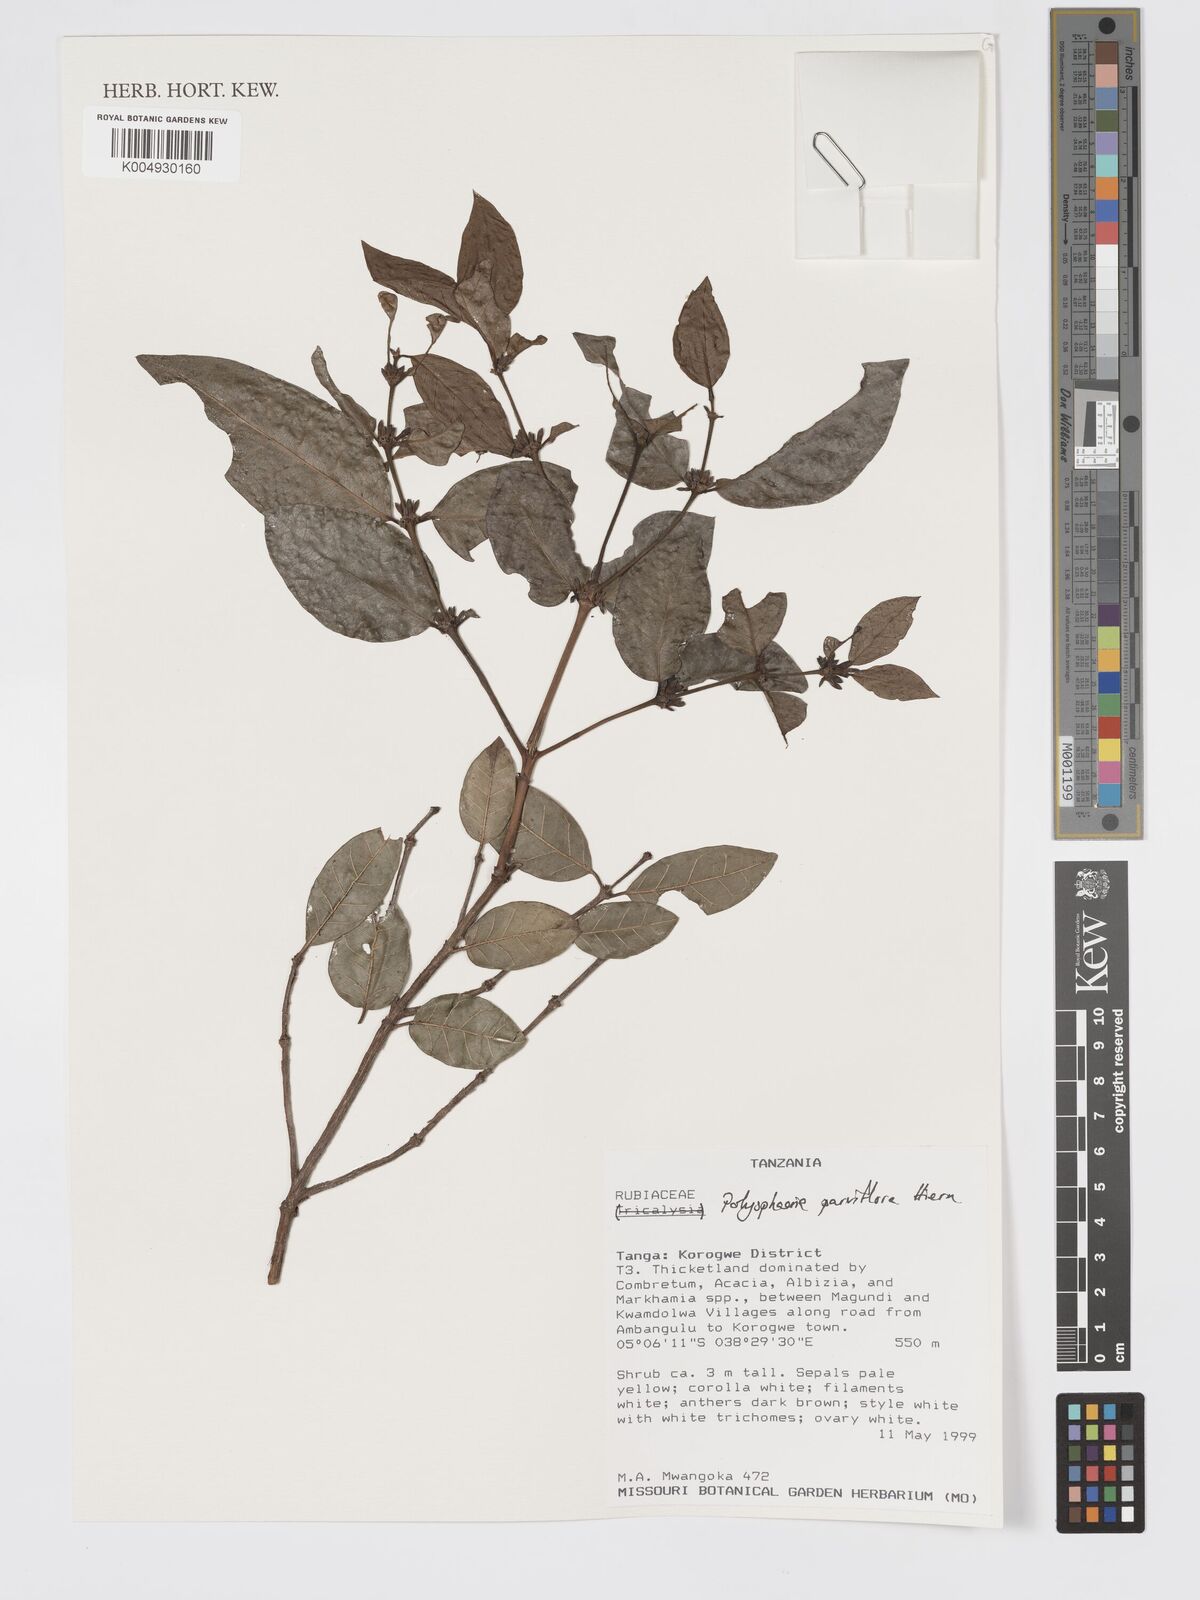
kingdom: Plantae
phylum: Tracheophyta
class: Magnoliopsida
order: Gentianales
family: Rubiaceae
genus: Polysphaeria
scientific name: Polysphaeria parvifolia
